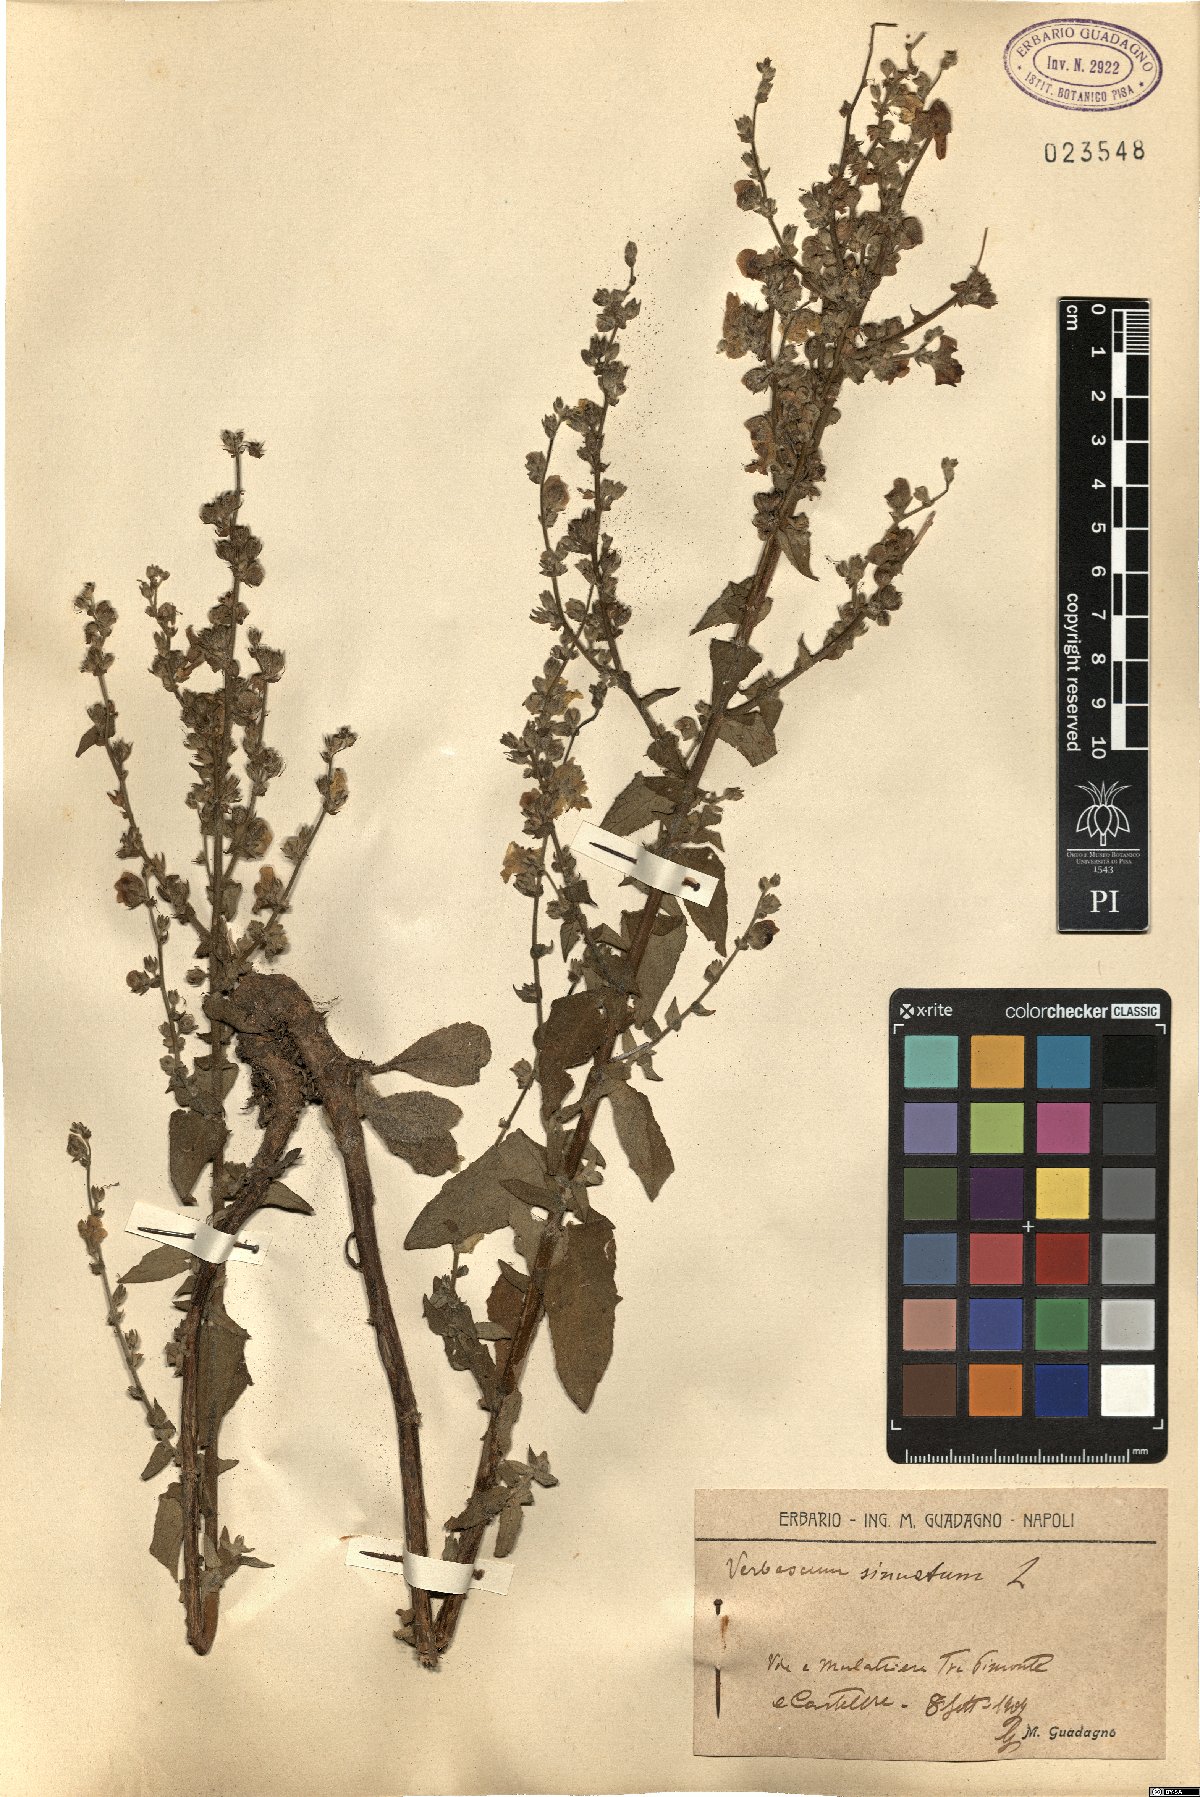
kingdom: Plantae
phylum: Tracheophyta
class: Magnoliopsida
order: Lamiales
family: Scrophulariaceae
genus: Verbascum
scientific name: Verbascum sinuatum
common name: Wavyleaf mullein
